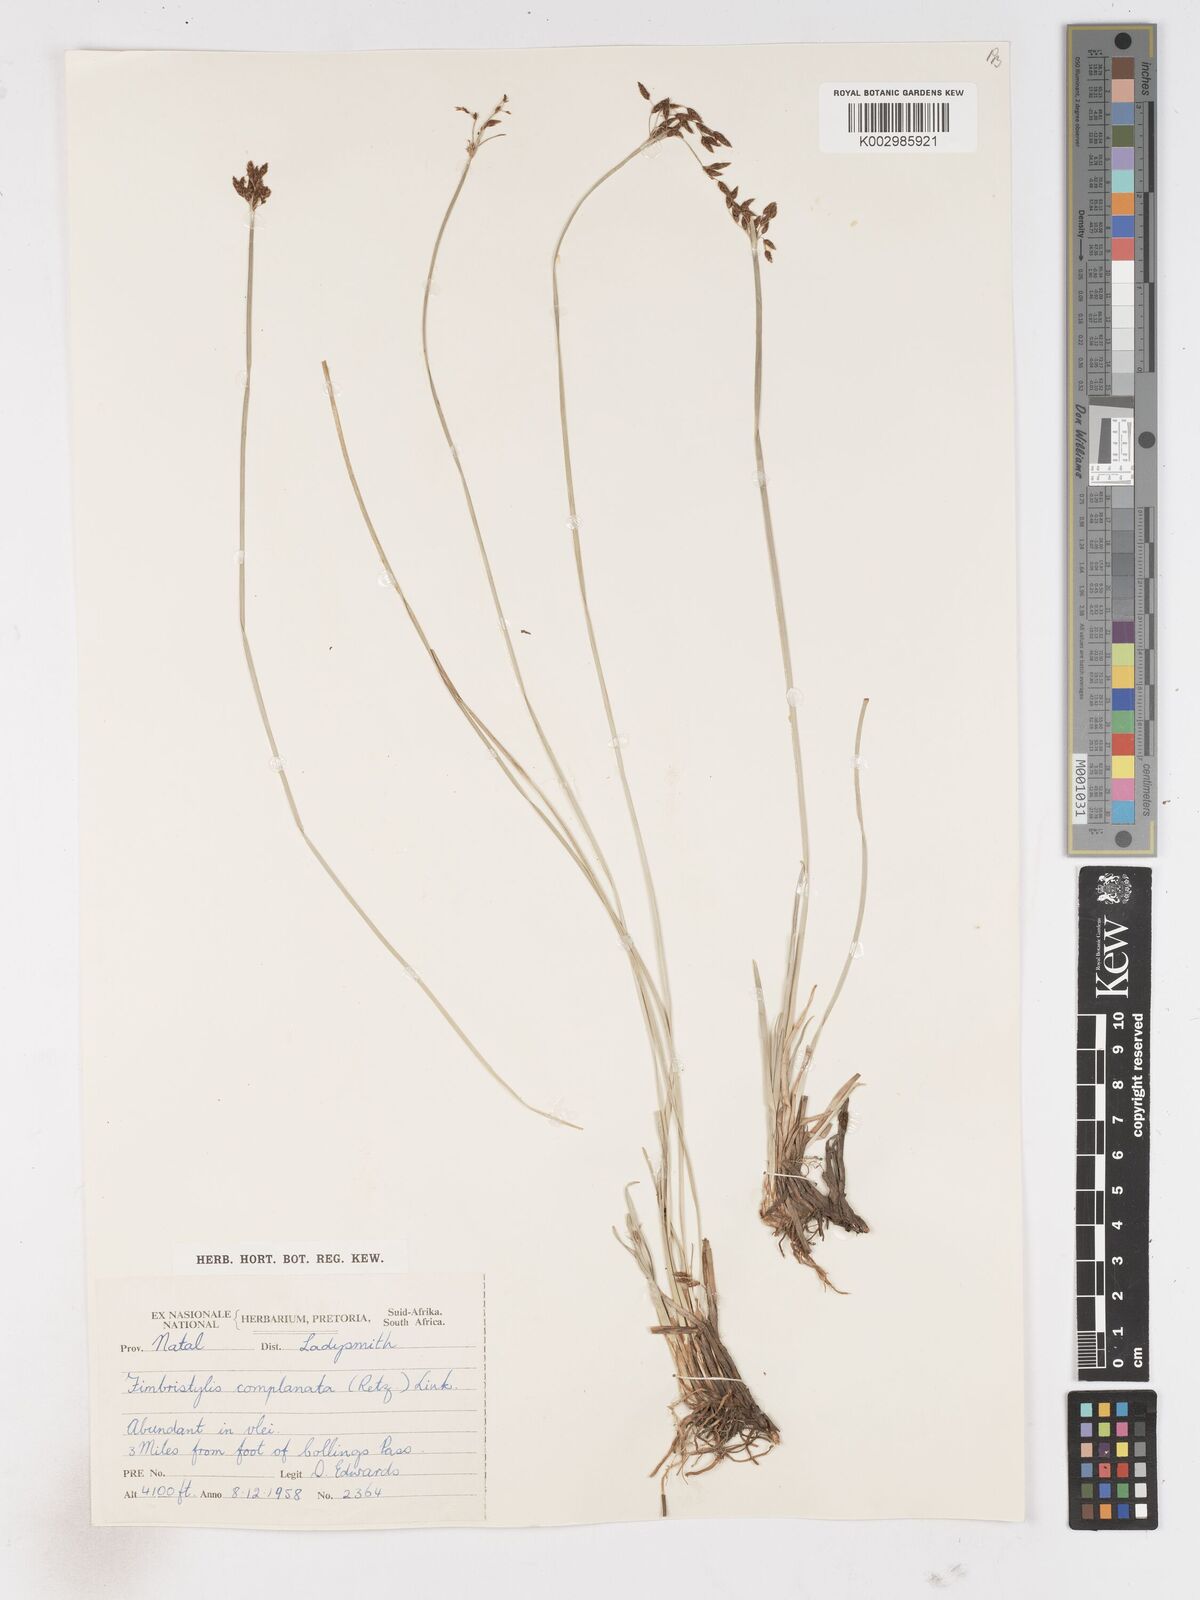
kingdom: Plantae
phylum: Tracheophyta
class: Liliopsida
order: Poales
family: Cyperaceae
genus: Fimbristylis
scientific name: Fimbristylis complanata
